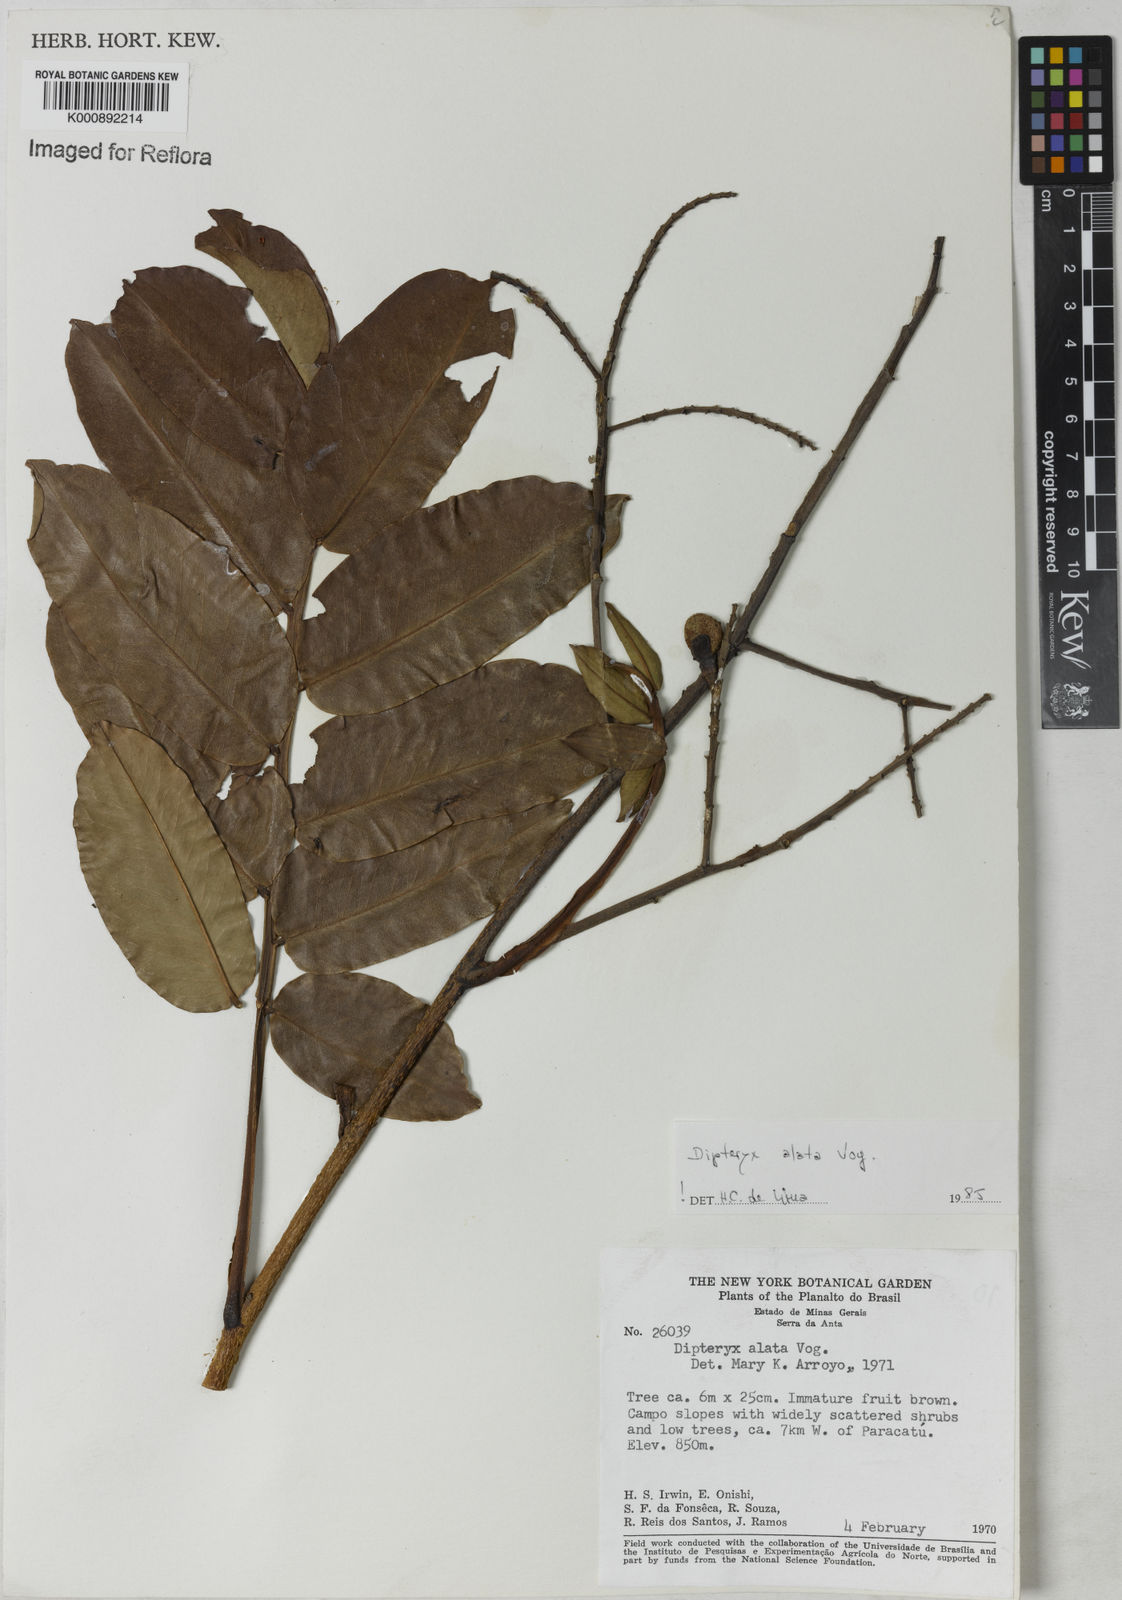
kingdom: Plantae
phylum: Tracheophyta
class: Magnoliopsida
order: Fabales
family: Fabaceae
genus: Dipteryx
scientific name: Dipteryx alata
